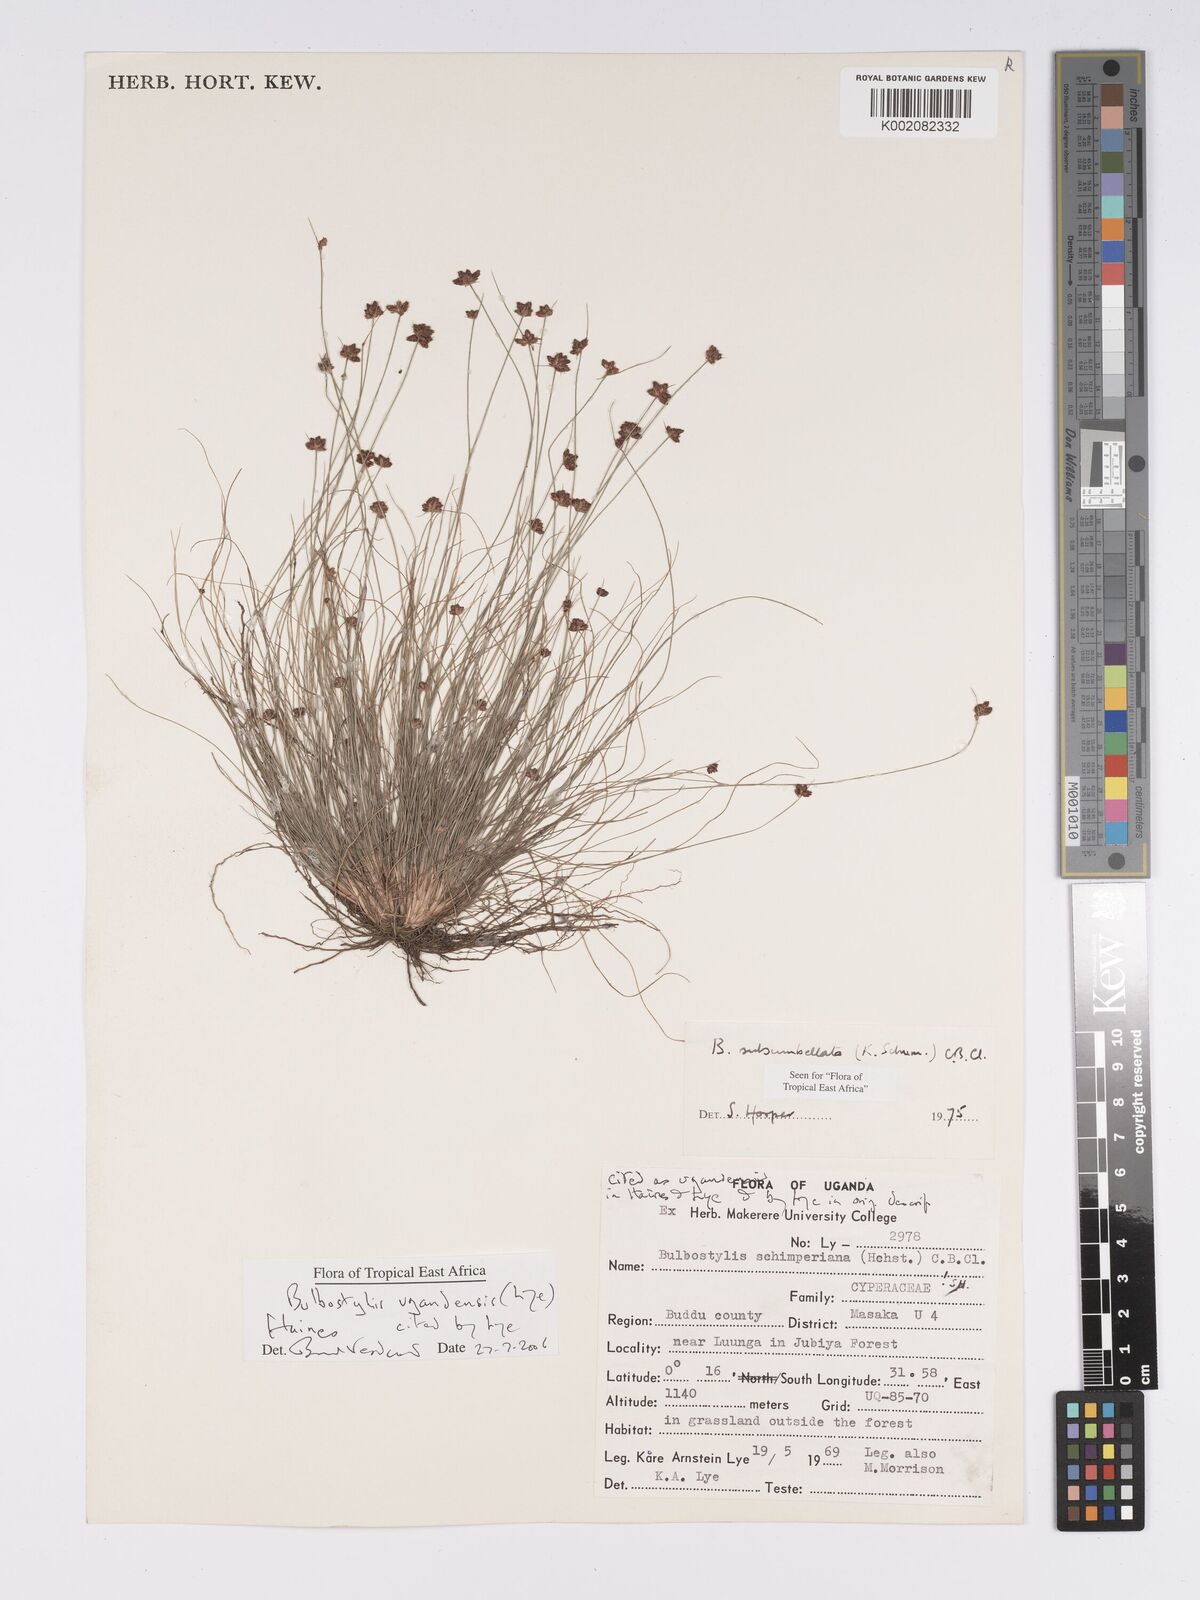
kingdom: Plantae
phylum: Tracheophyta
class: Liliopsida
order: Poales
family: Cyperaceae
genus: Bulbostylis
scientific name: Bulbostylis ugandensis
